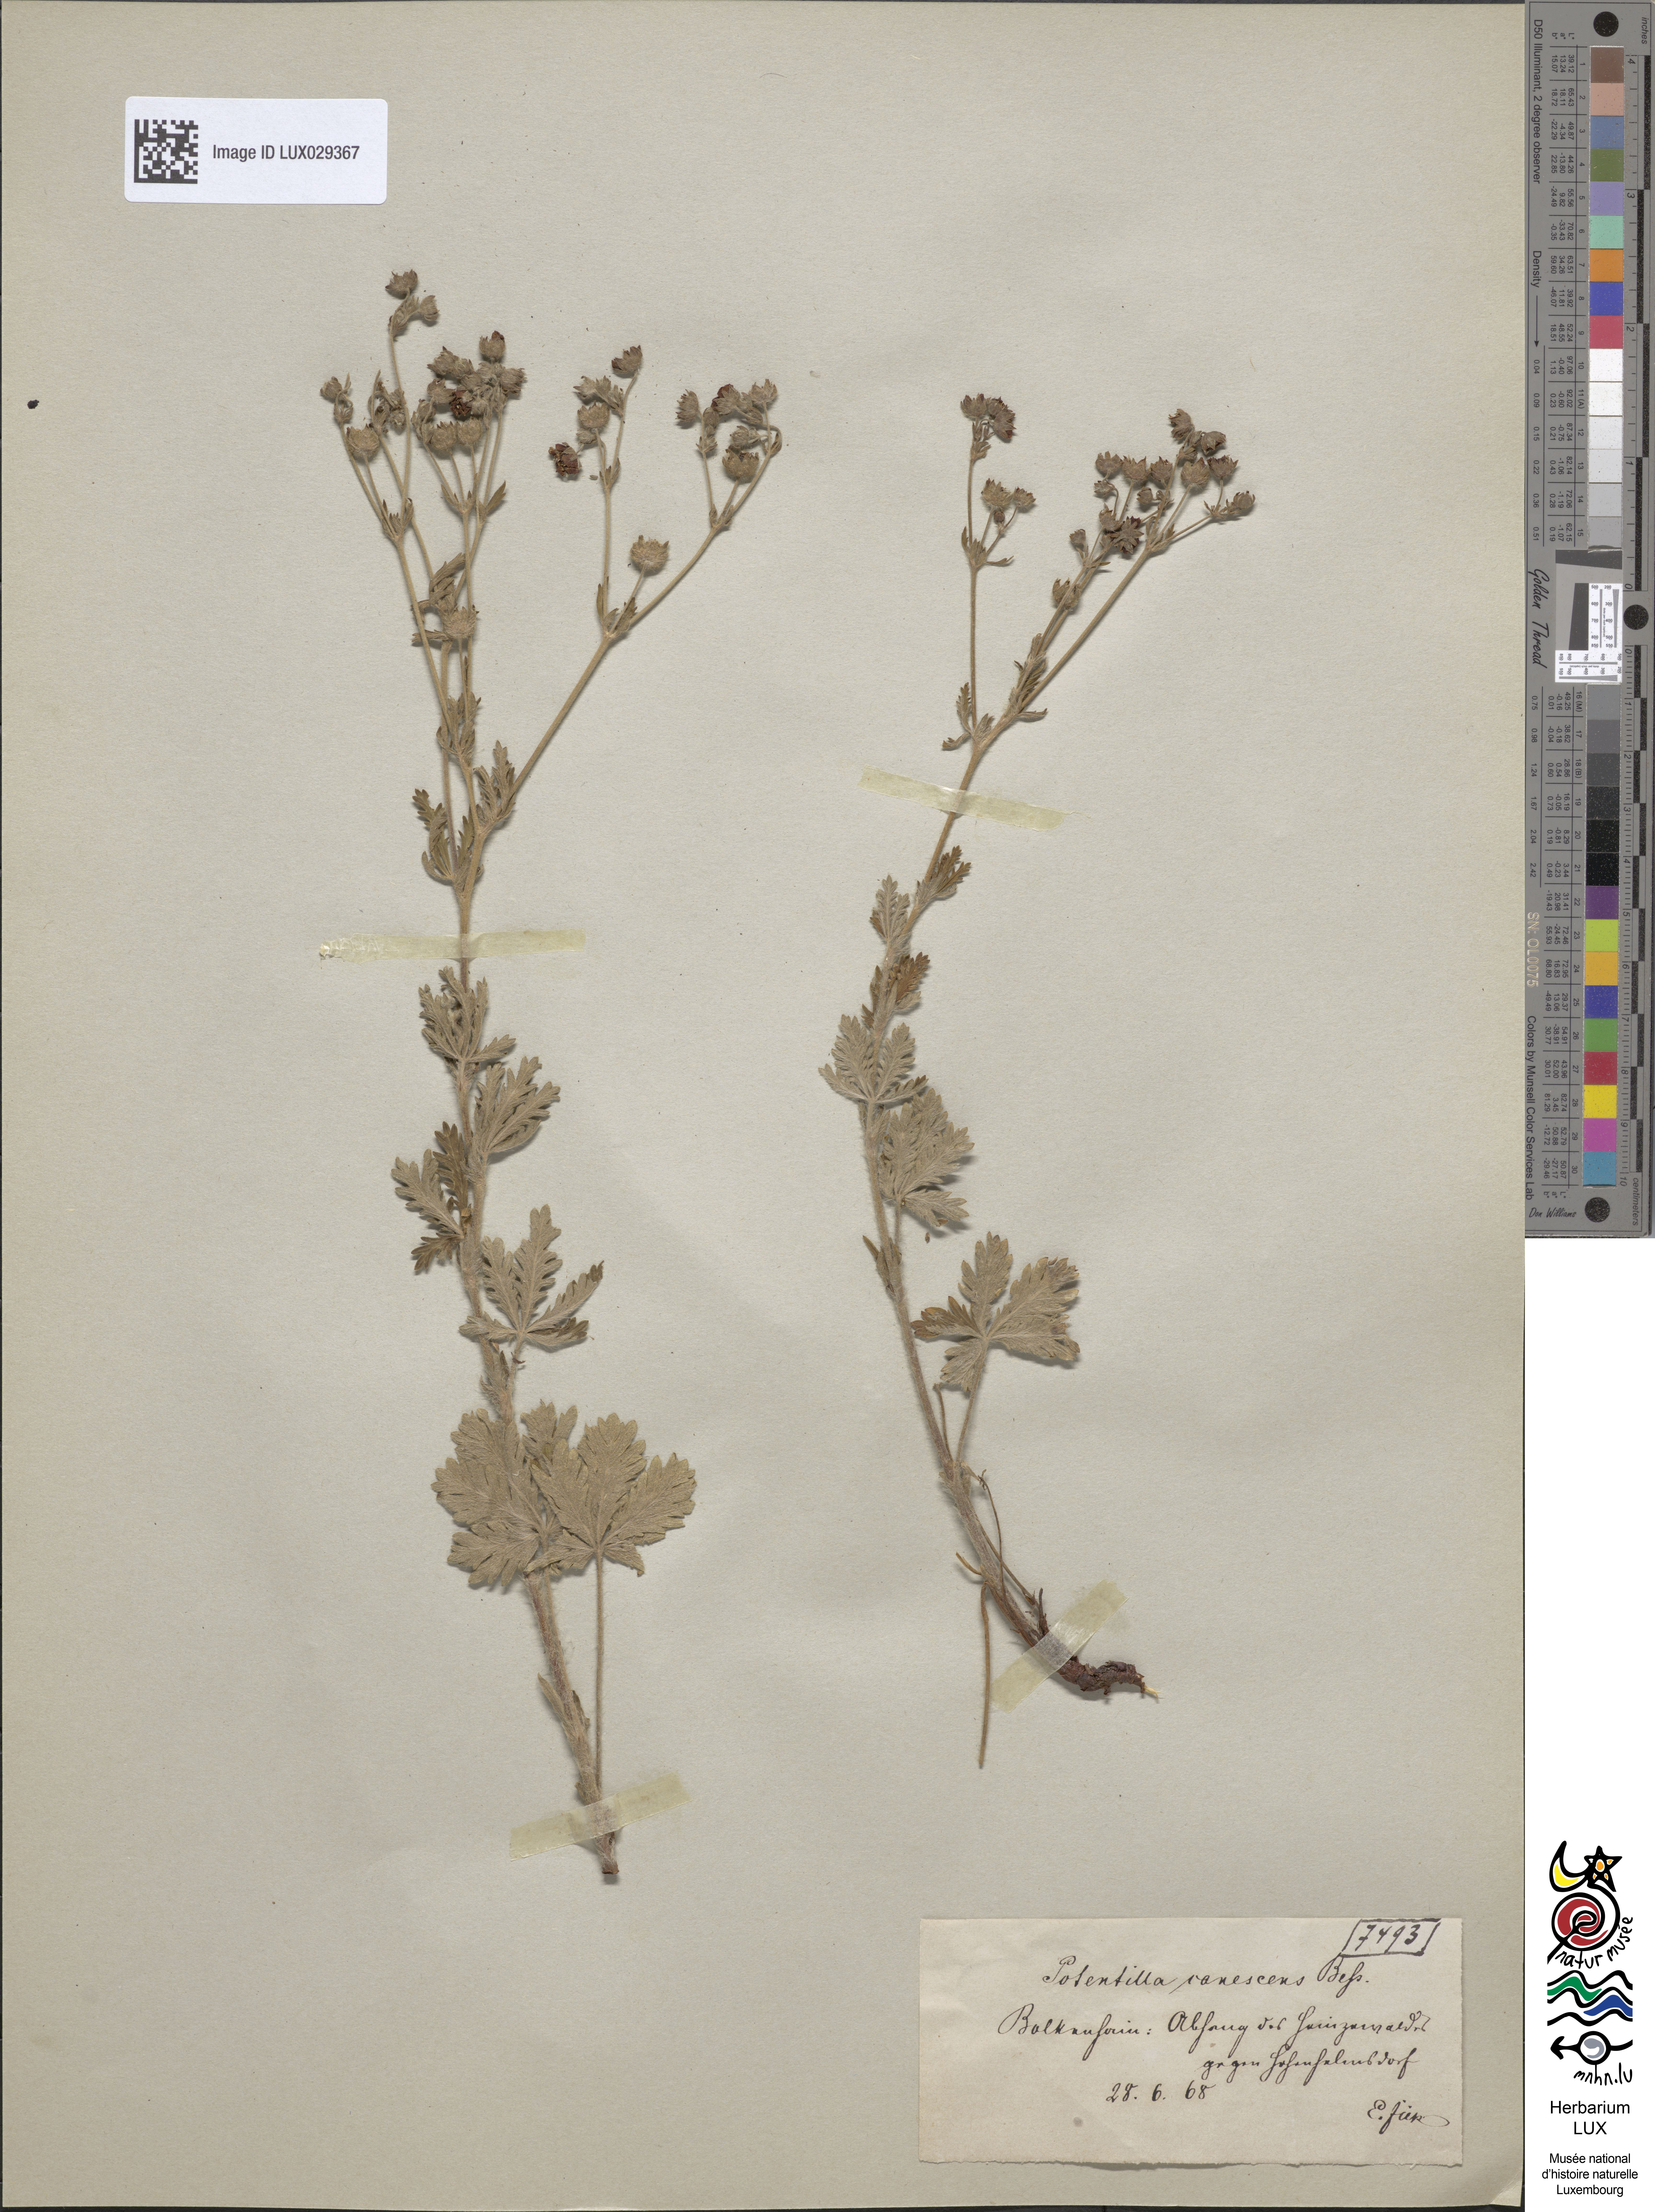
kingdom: Plantae
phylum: Tracheophyta
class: Magnoliopsida
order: Rosales
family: Rosaceae
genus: Potentilla
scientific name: Potentilla inclinata
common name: Grey cinquefoil
